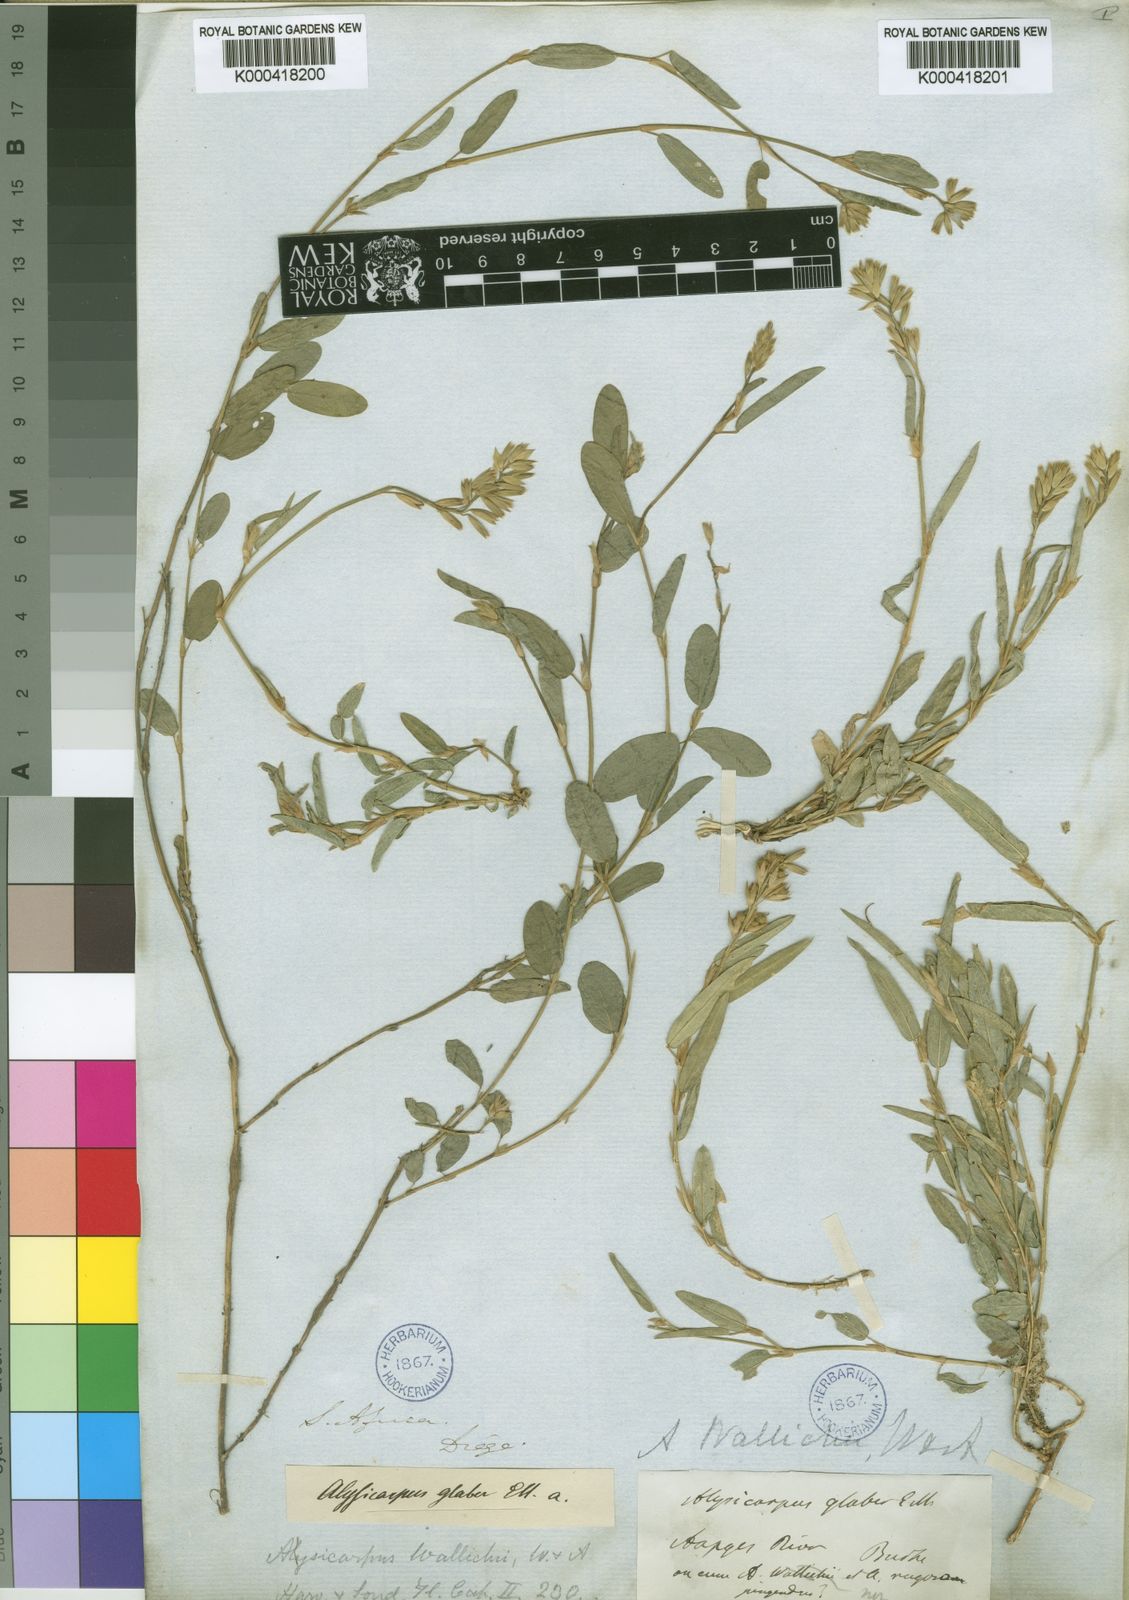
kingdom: Plantae
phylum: Tracheophyta
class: Magnoliopsida
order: Fabales
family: Fabaceae
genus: Alysicarpus
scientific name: Alysicarpus rugosus
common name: Red moneywort
